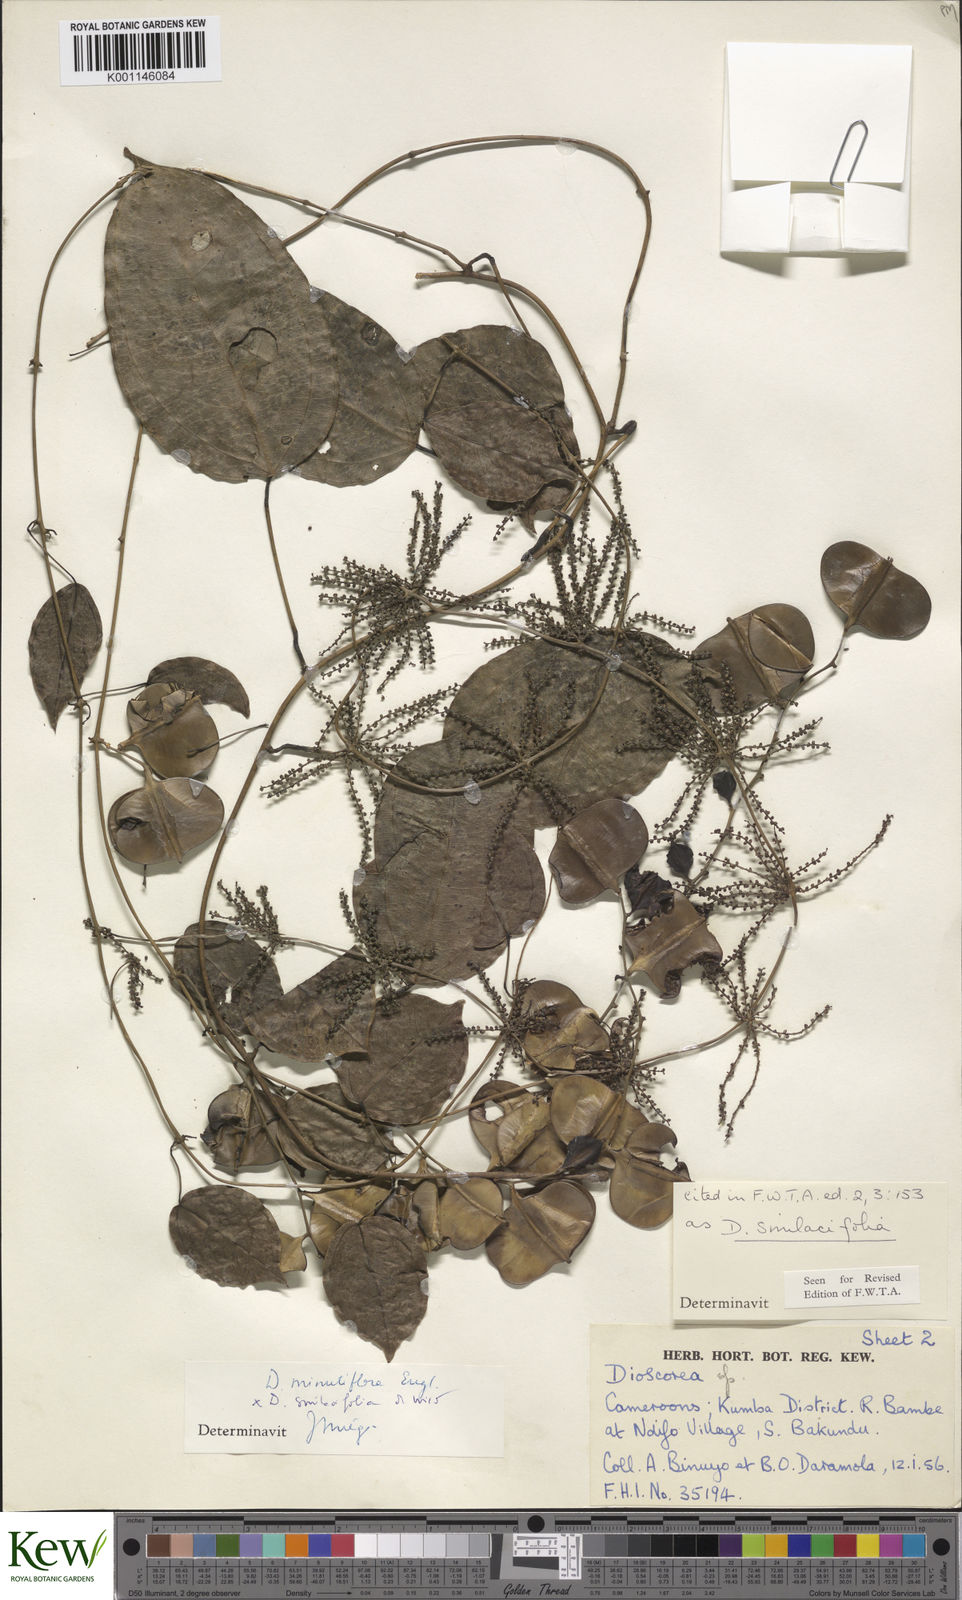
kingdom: Plantae
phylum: Tracheophyta
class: Liliopsida
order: Dioscoreales
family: Dioscoreaceae
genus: Dioscorea
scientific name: Dioscorea smilacifolia
